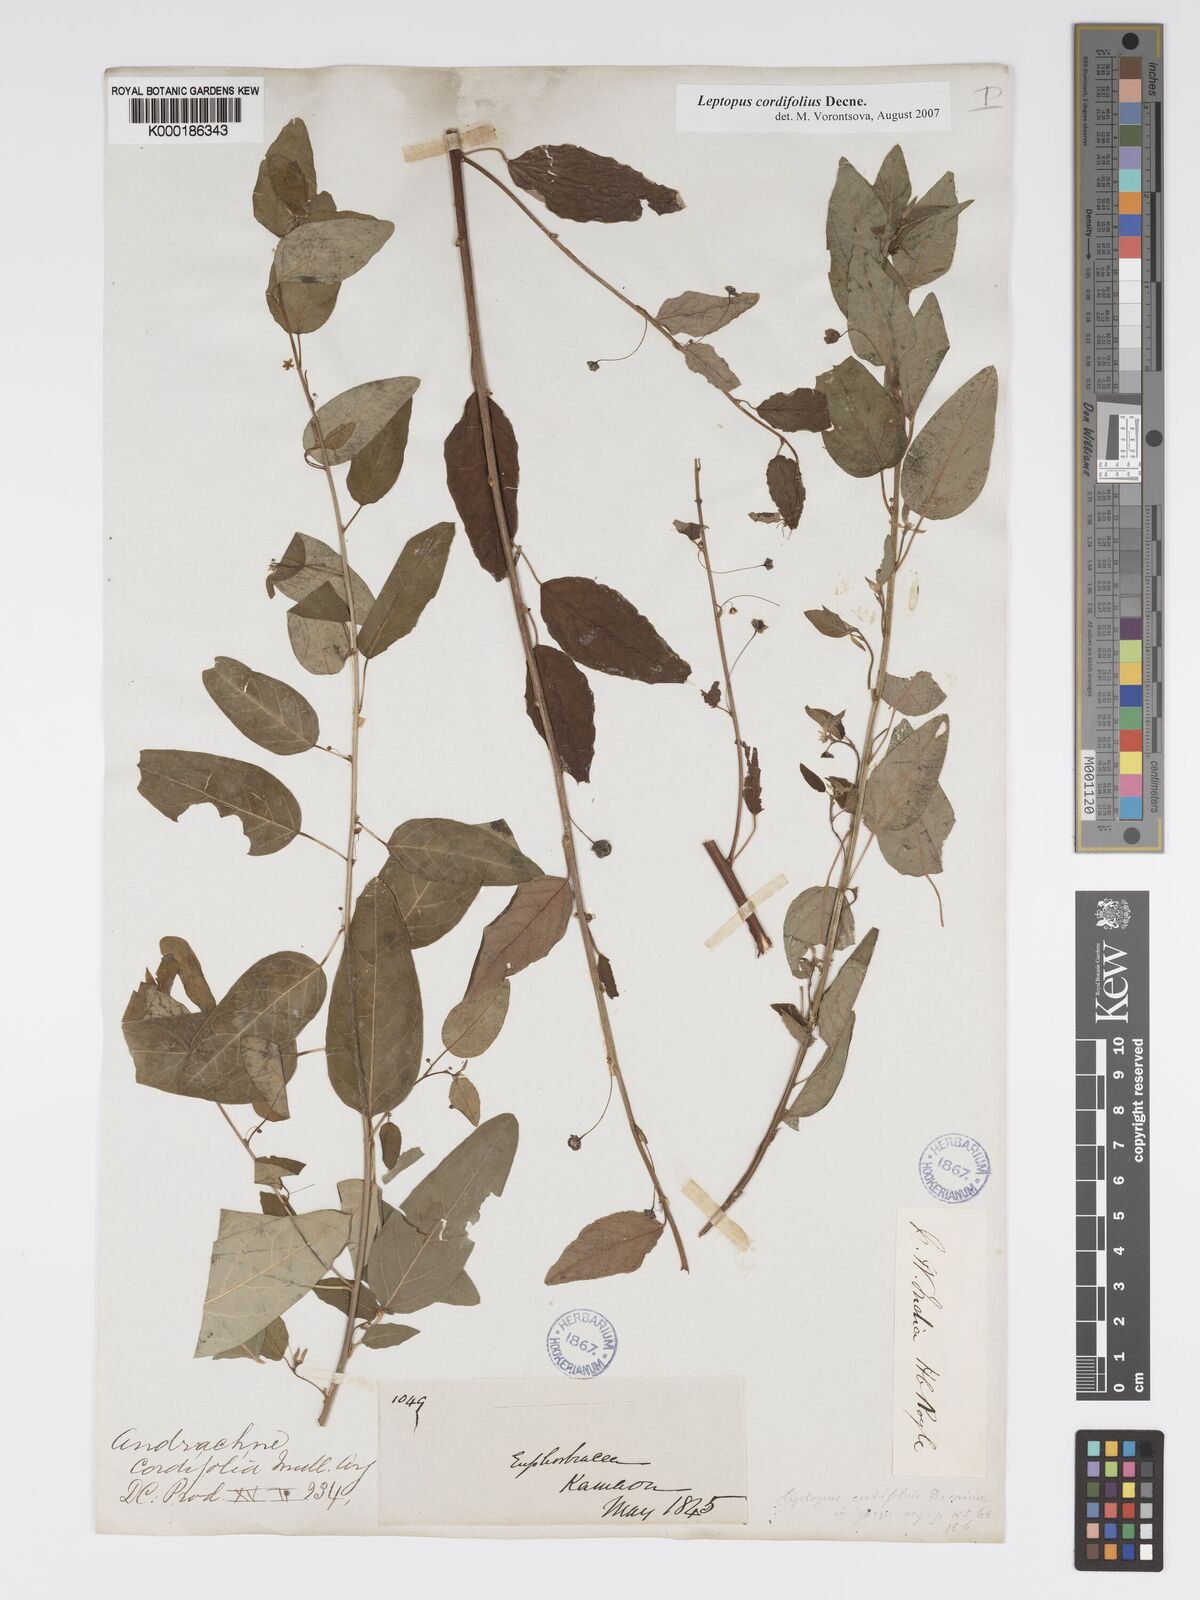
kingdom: Plantae
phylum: Tracheophyta
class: Magnoliopsida
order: Malpighiales
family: Phyllanthaceae
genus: Leptopus
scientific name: Leptopus cordifolius
